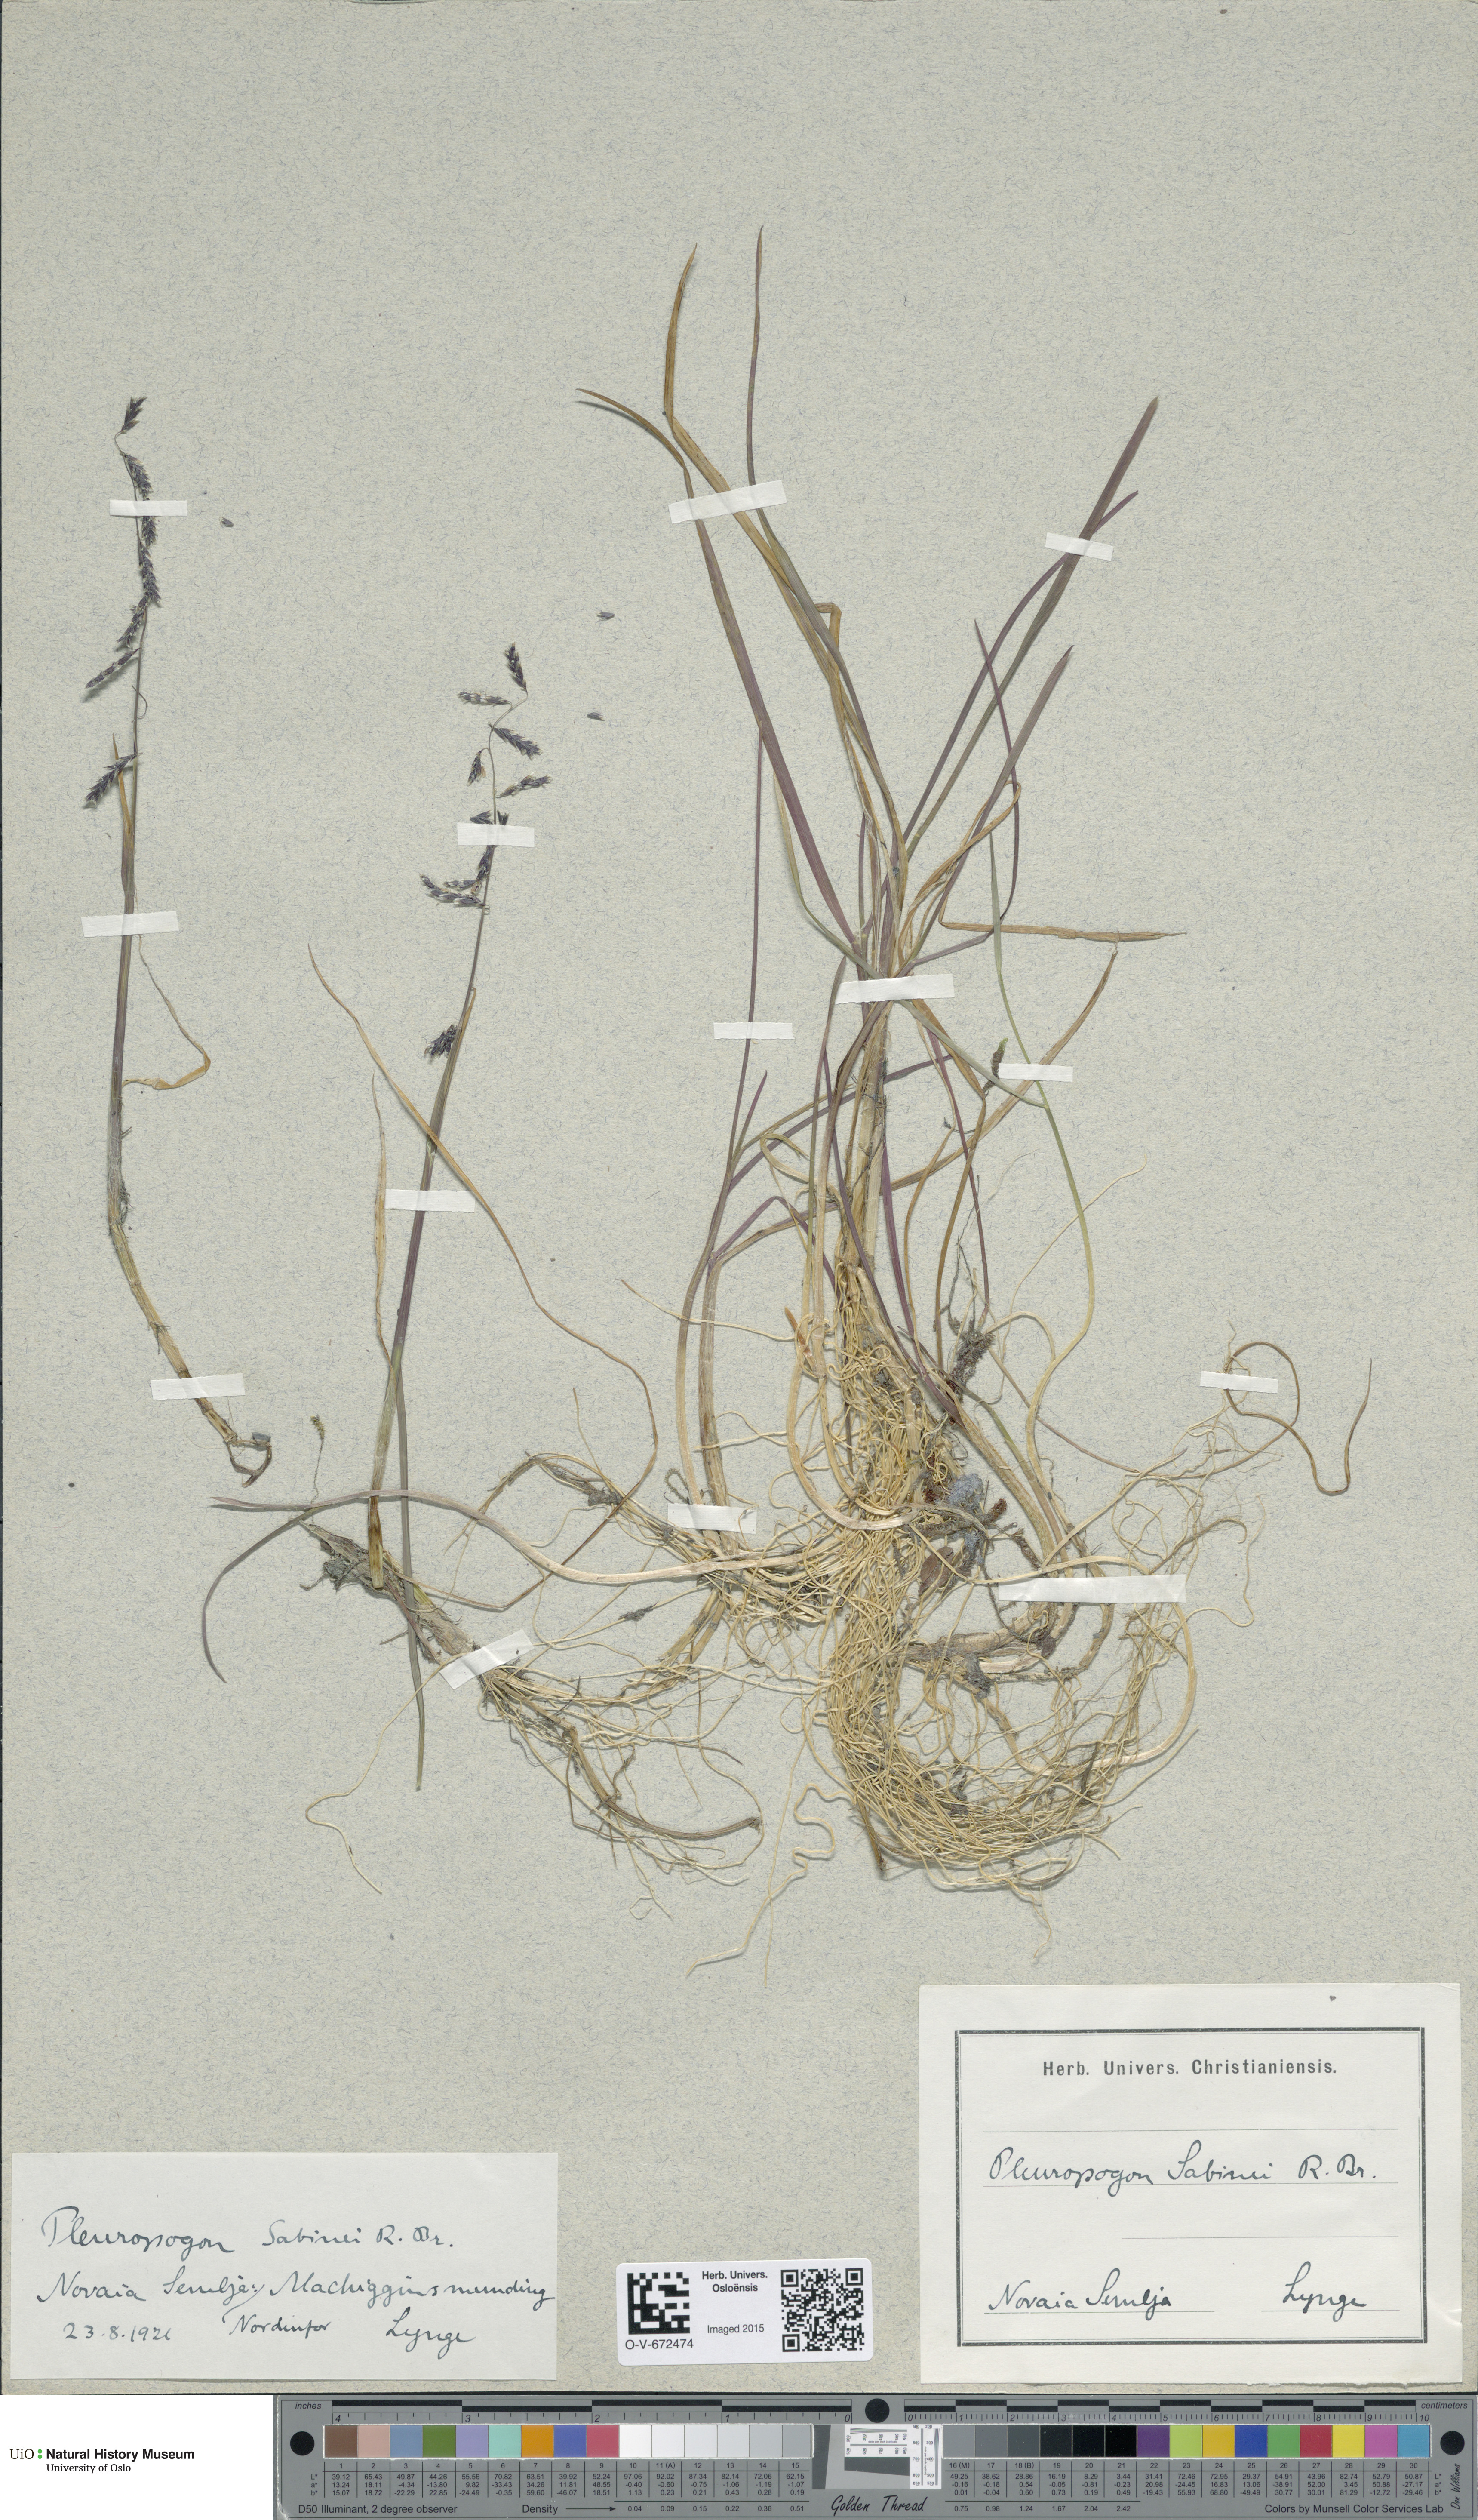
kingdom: Plantae
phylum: Tracheophyta
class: Liliopsida
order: Poales
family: Poaceae
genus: Pleuropogon
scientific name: Pleuropogon sabinei
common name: Sabine's false semaphoregrass
